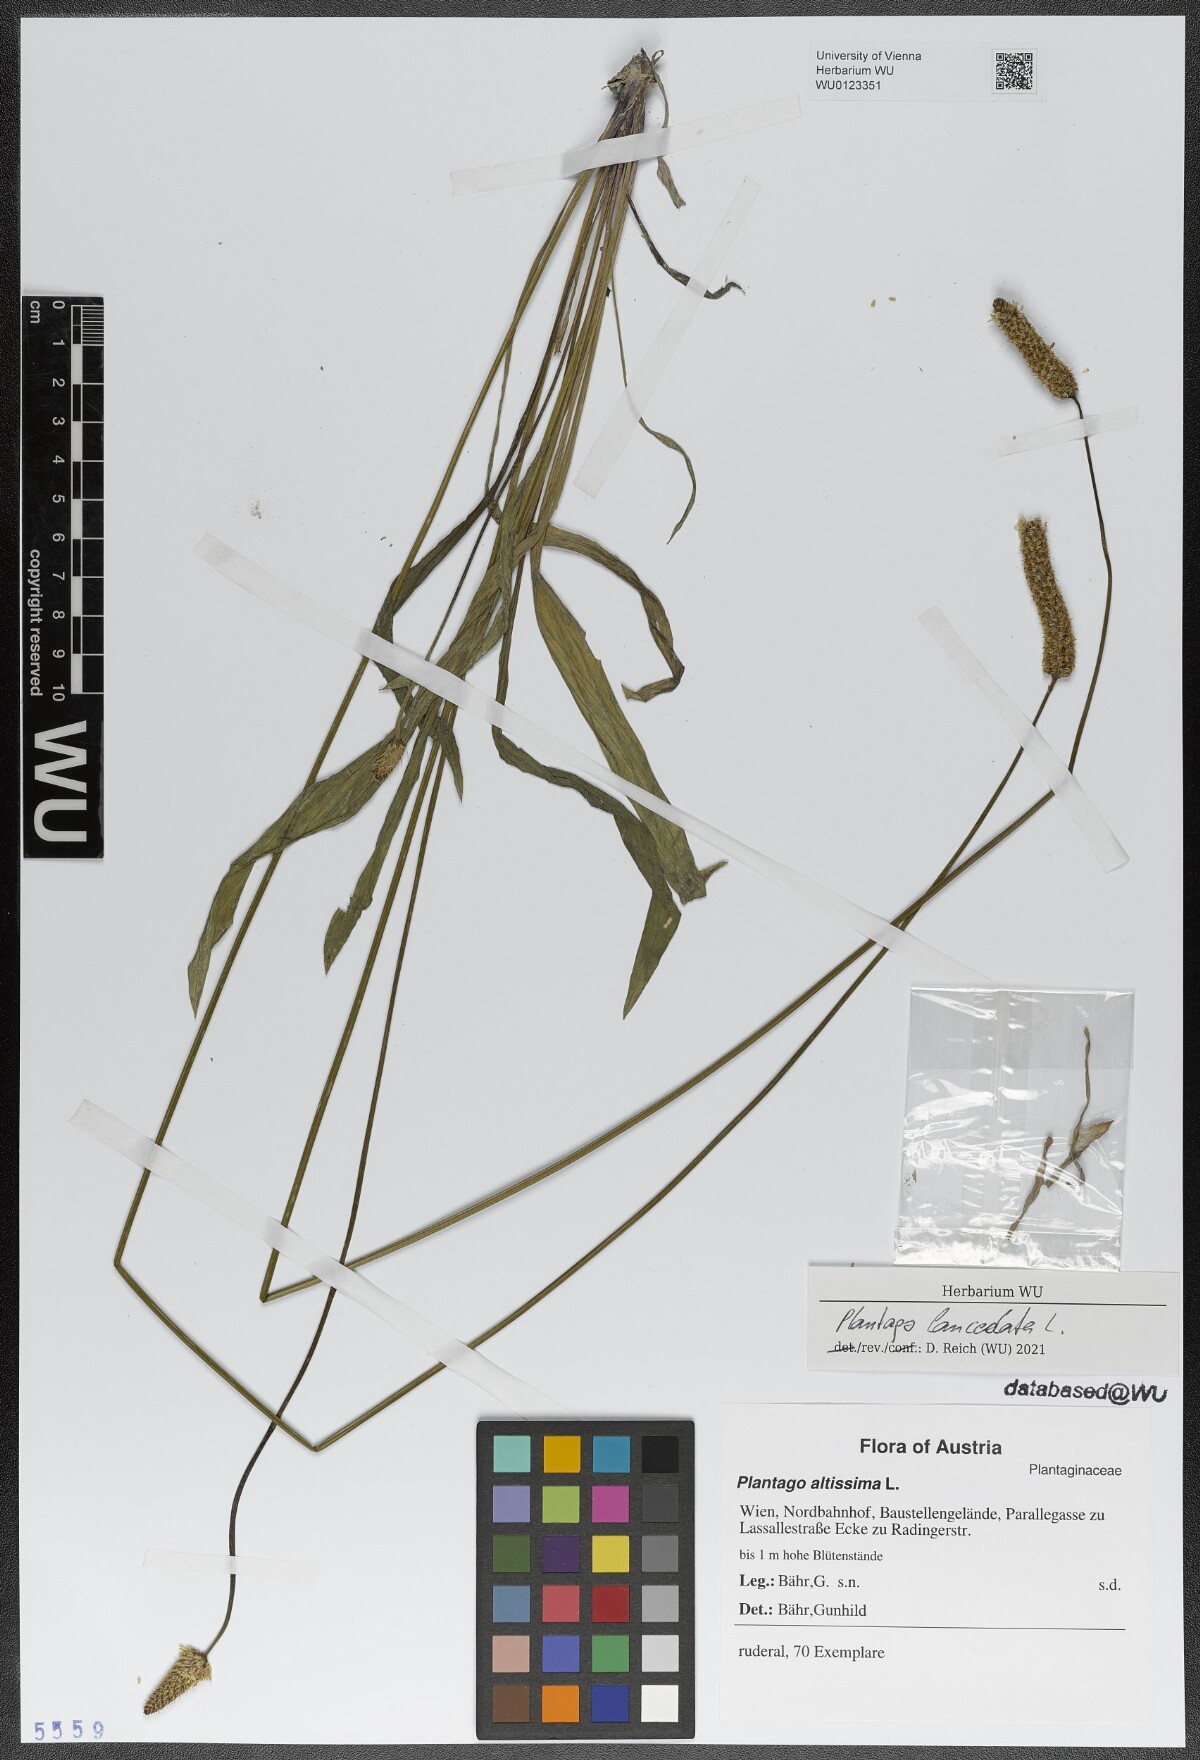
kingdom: Plantae
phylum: Tracheophyta
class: Magnoliopsida
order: Lamiales
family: Plantaginaceae
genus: Plantago
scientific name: Plantago lanceolata
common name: Ribwort plantain
